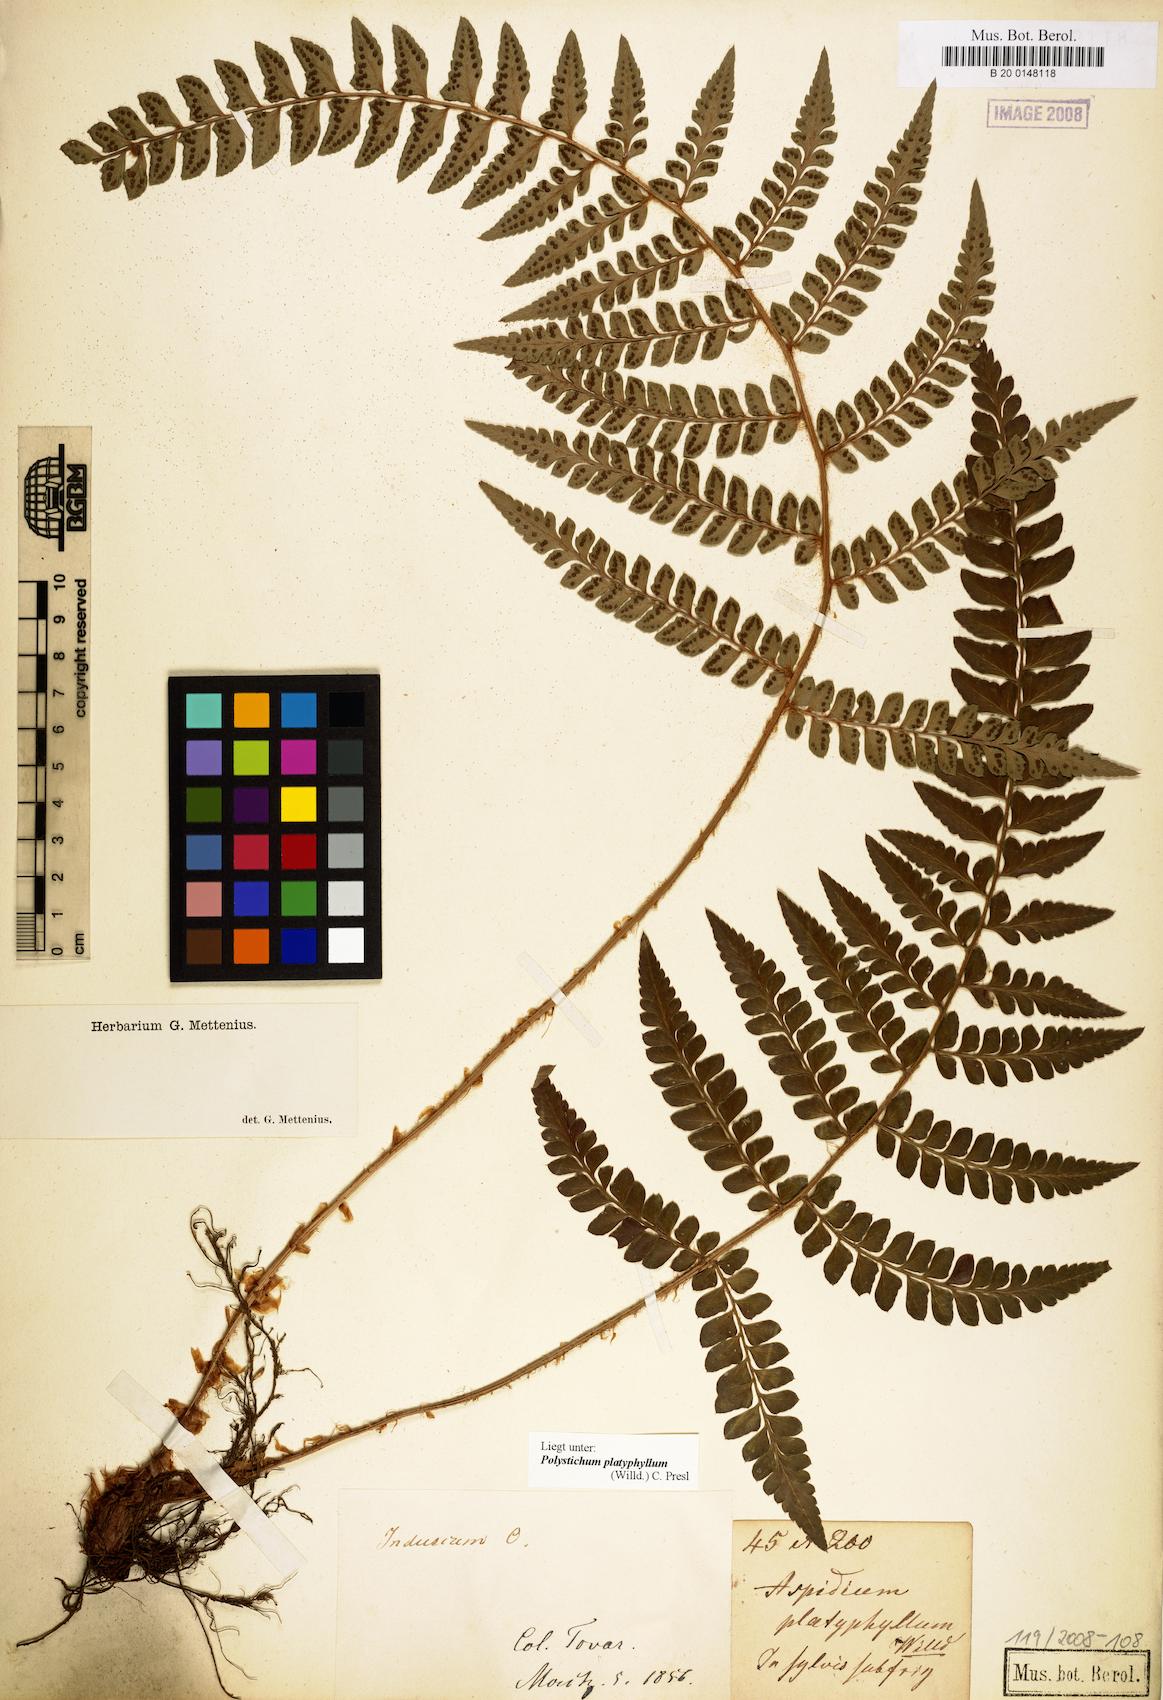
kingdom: Plantae
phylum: Tracheophyta
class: Polypodiopsida
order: Polypodiales
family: Dryopteridaceae
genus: Polystichum
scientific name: Polystichum platyphyllum
